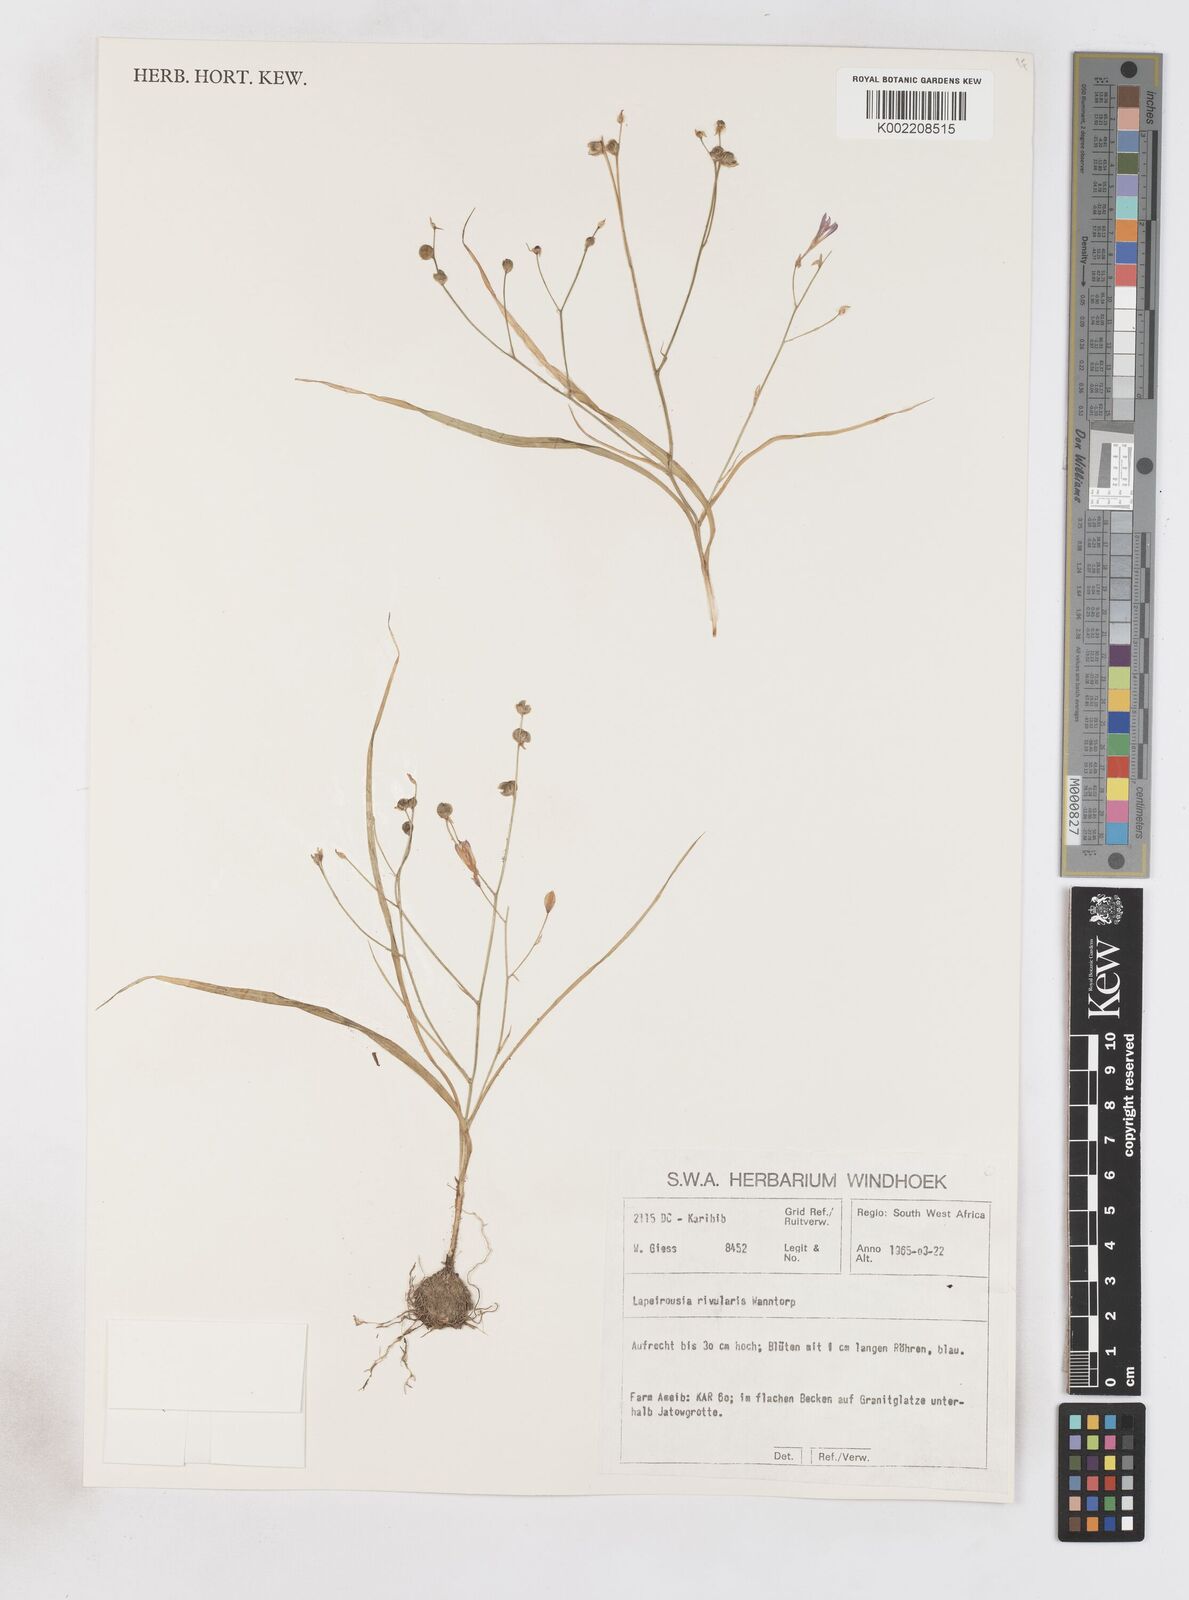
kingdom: Plantae
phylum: Tracheophyta
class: Liliopsida
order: Asparagales
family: Iridaceae
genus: Afrosolen
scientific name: Afrosolen rivularis
